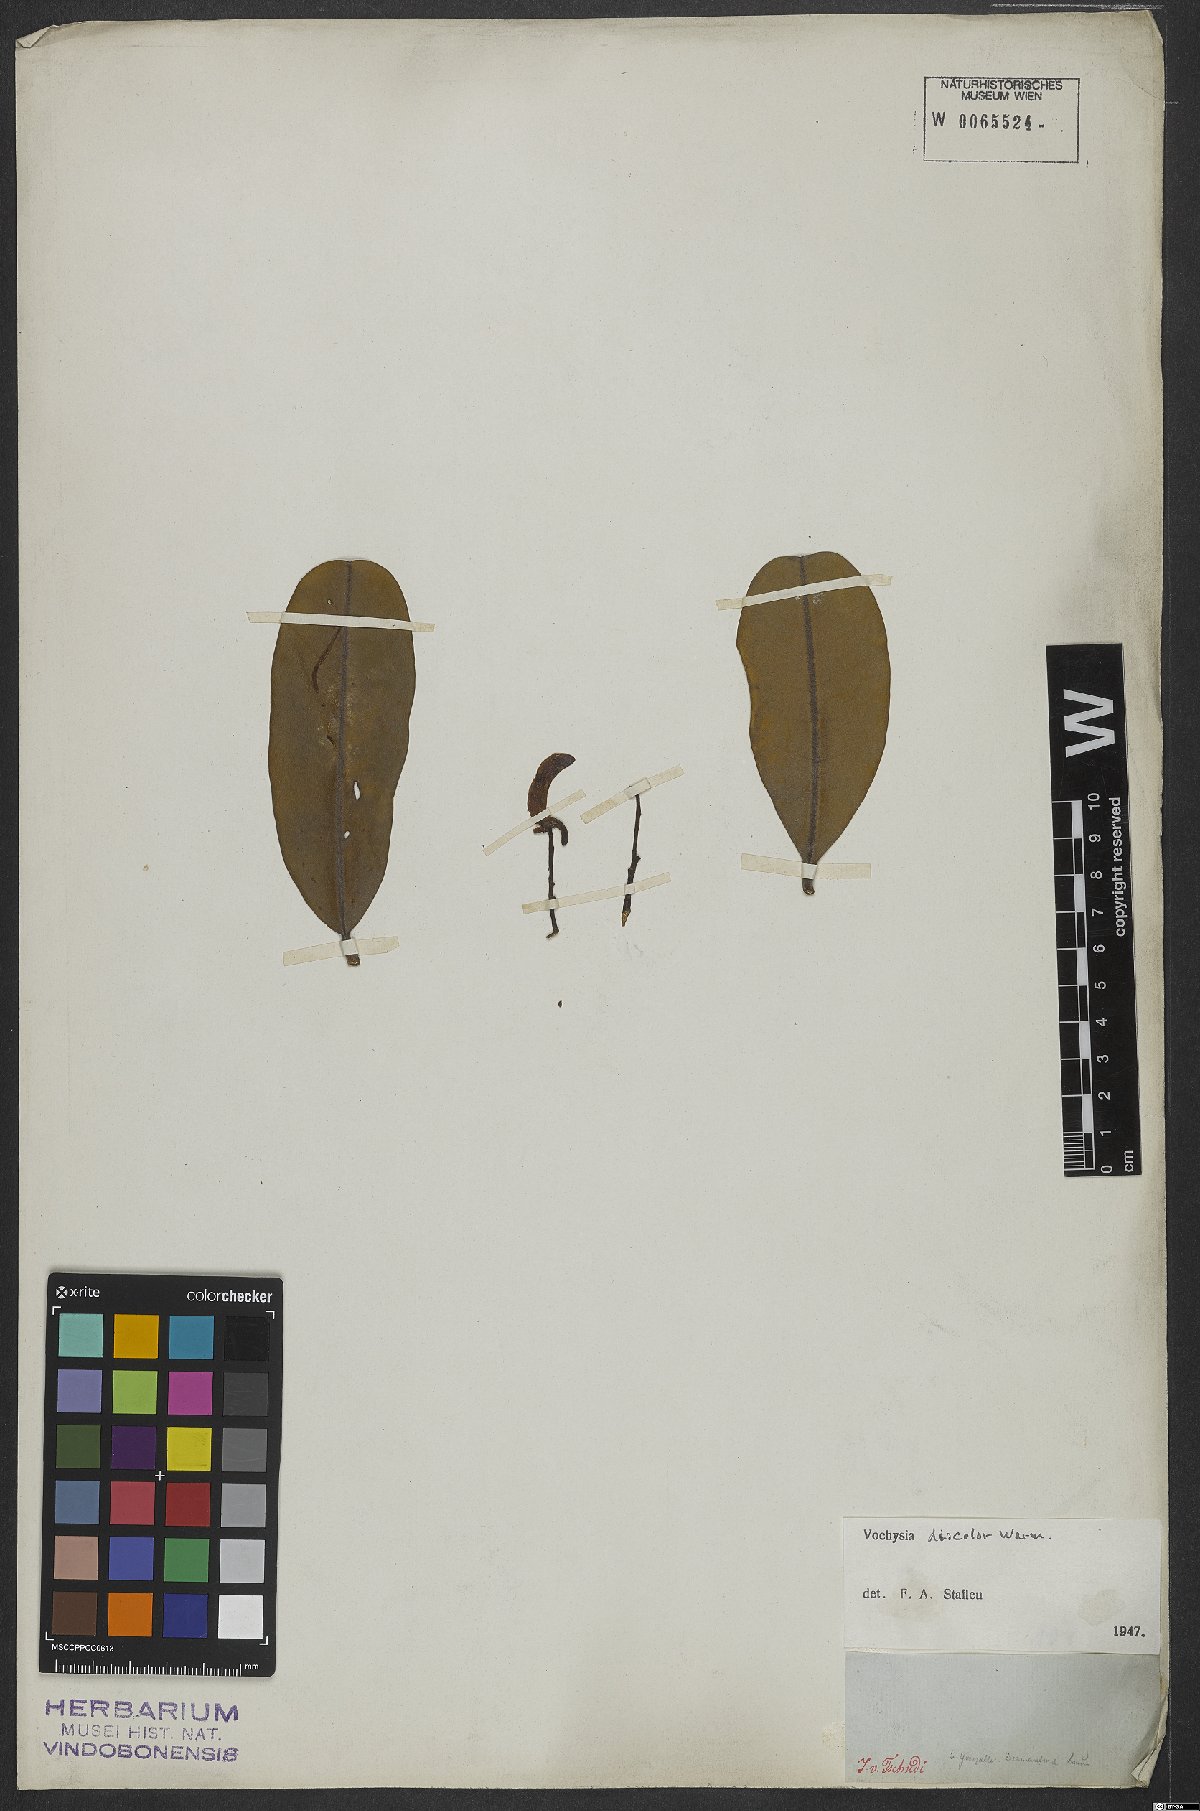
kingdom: Plantae
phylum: Tracheophyta
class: Magnoliopsida
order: Myrtales
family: Vochysiaceae
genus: Vochysia
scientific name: Vochysia discolor
